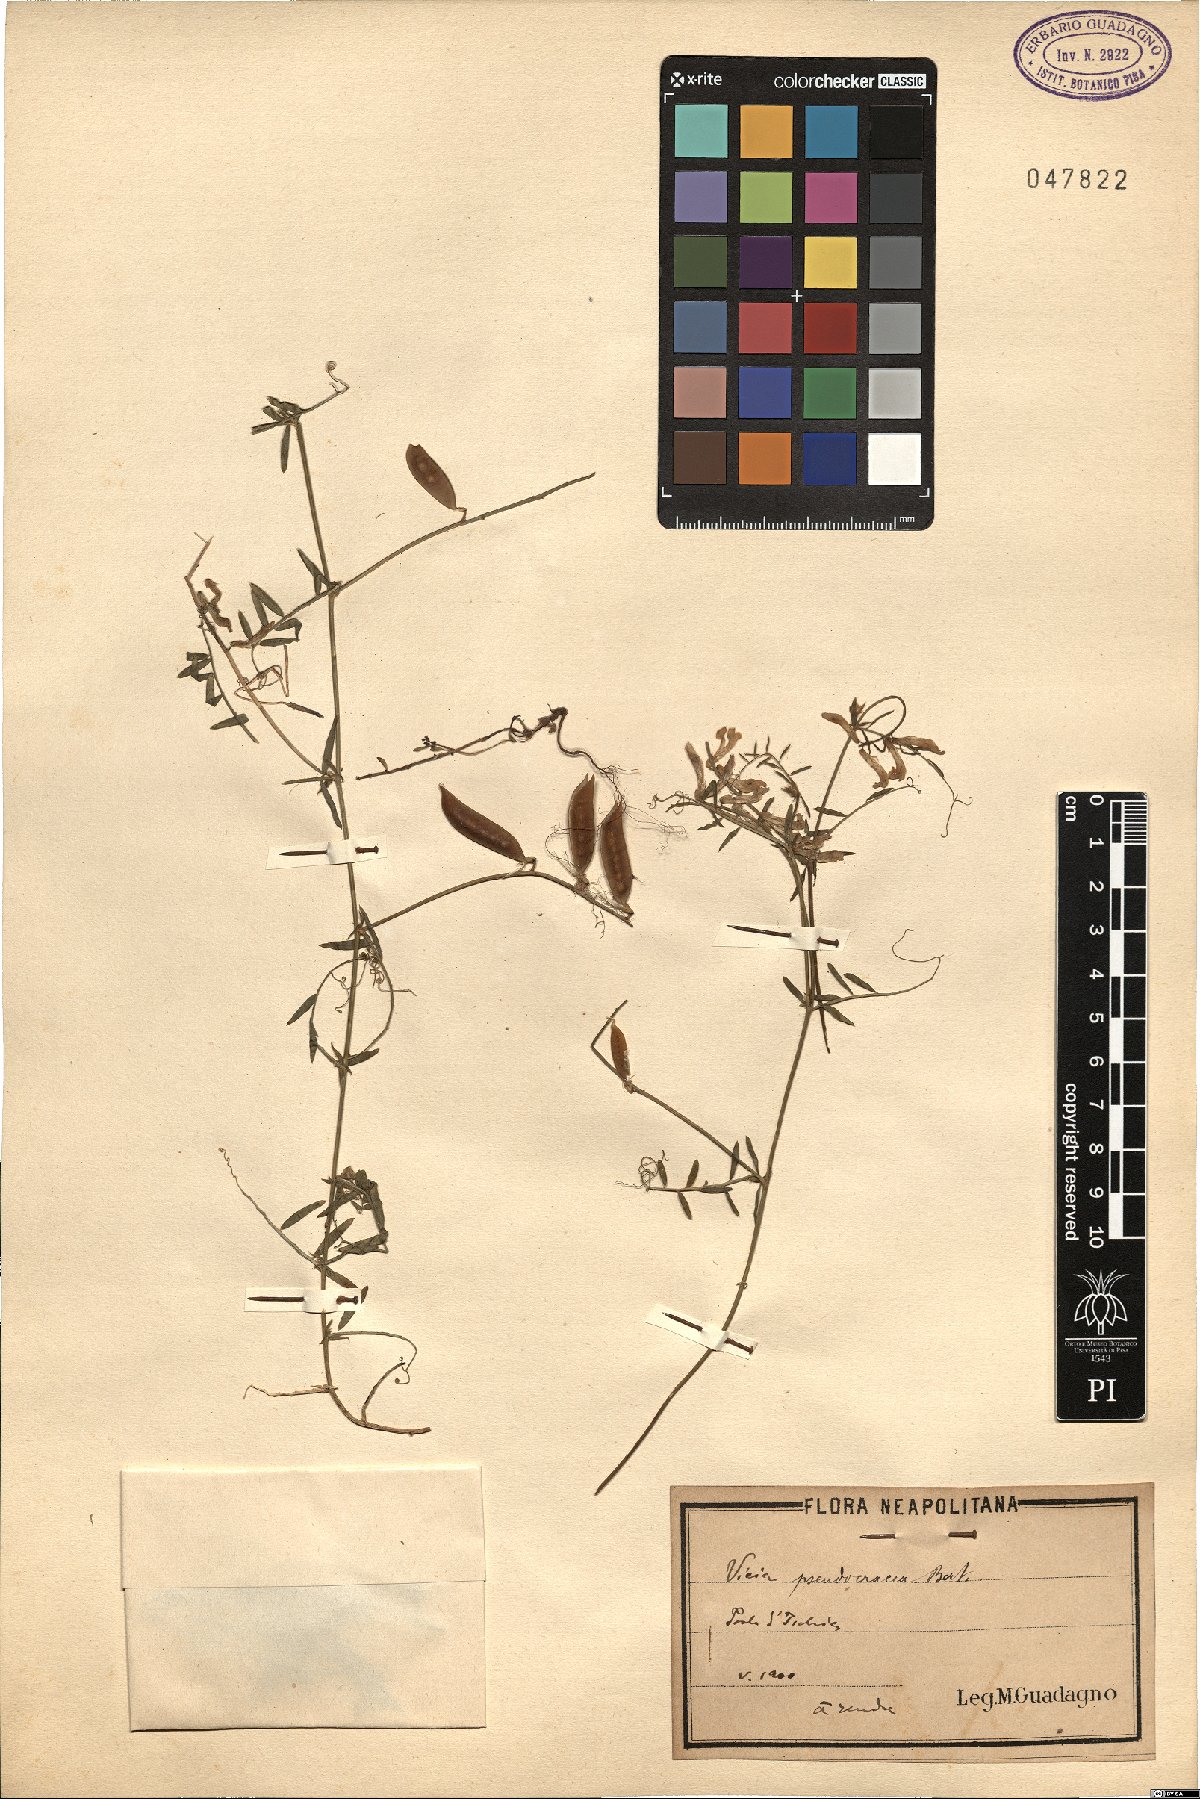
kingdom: Plantae
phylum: Tracheophyta
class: Magnoliopsida
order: Fabales
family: Fabaceae
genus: Vicia
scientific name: Vicia villosa
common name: Fodder vetch
